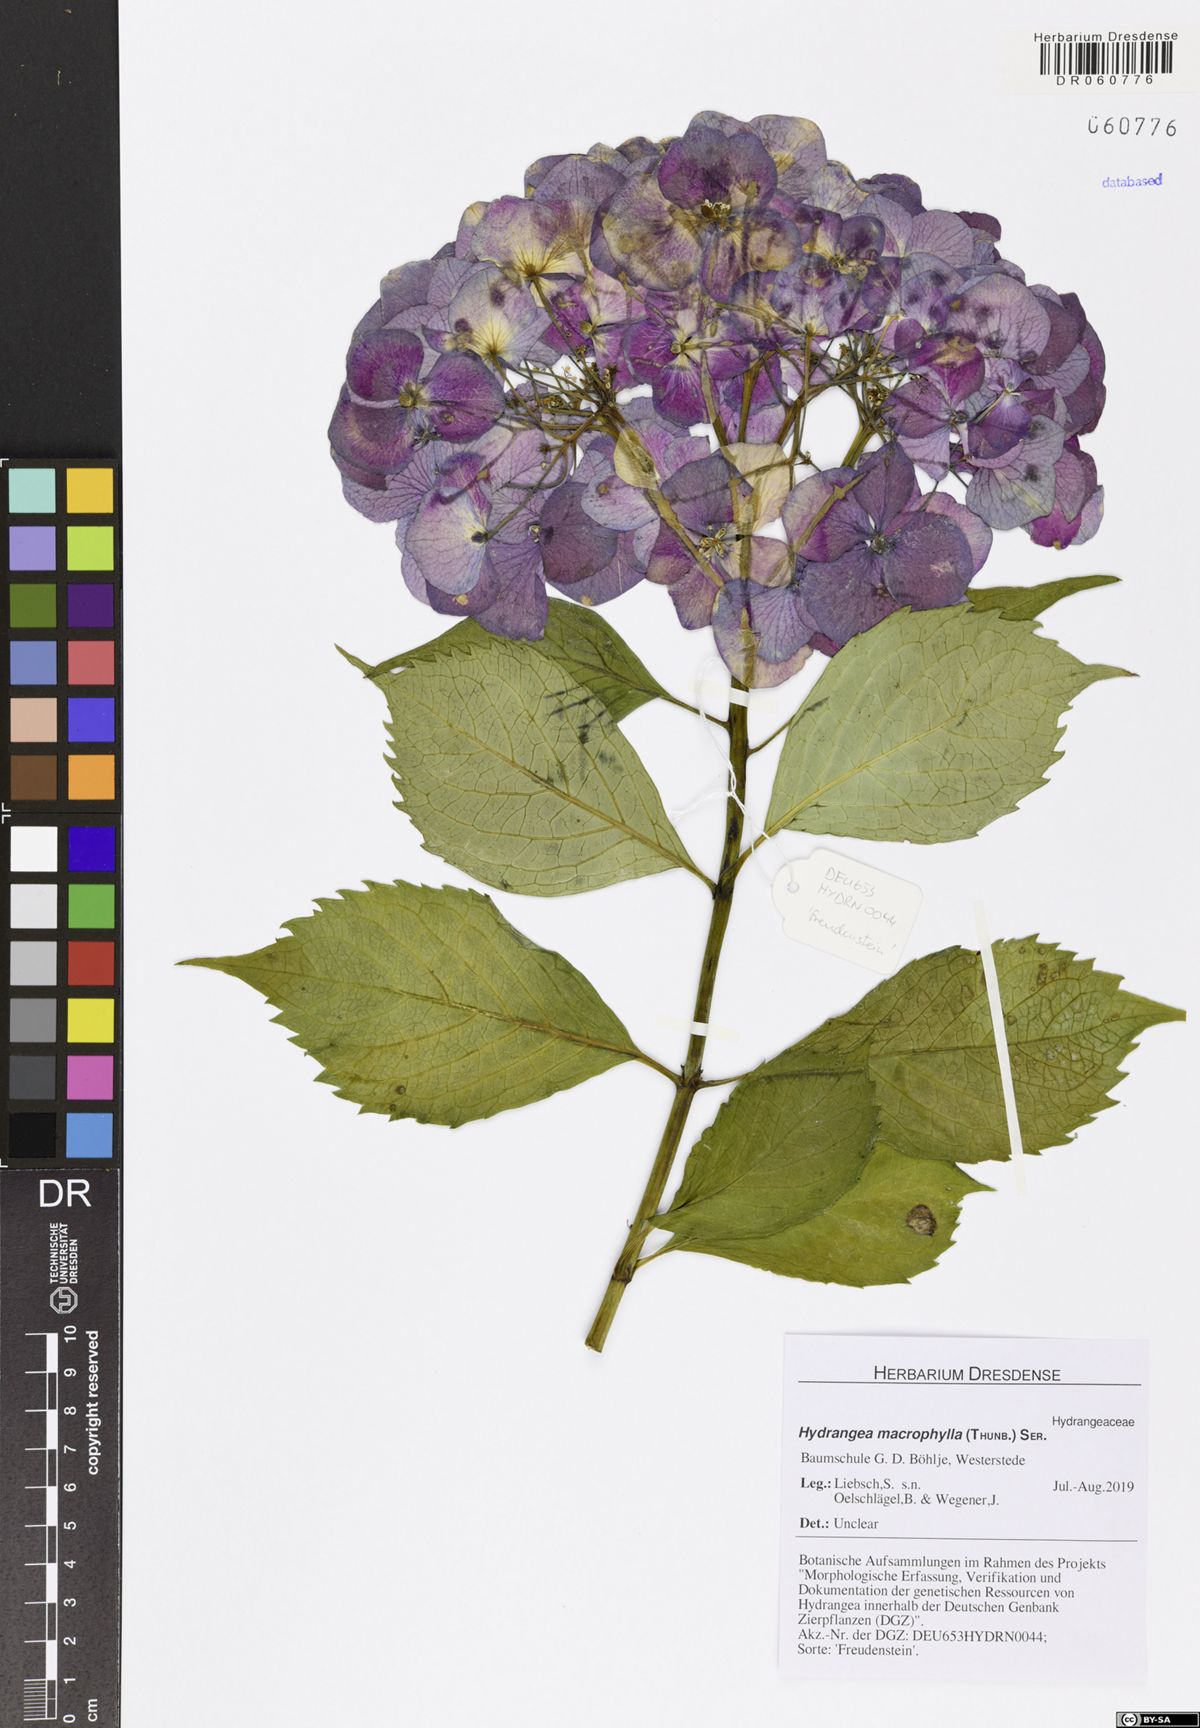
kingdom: Plantae
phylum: Tracheophyta
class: Magnoliopsida
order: Cornales
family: Hydrangeaceae
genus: Hydrangea
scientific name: Hydrangea macrophylla
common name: Hydrangea
